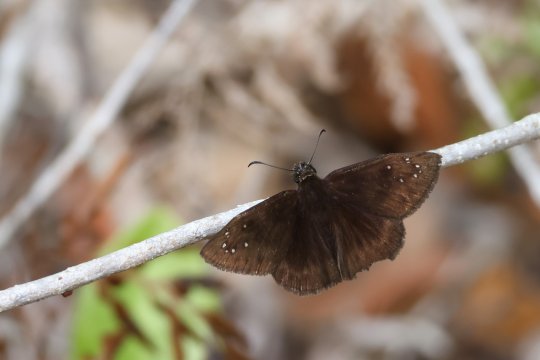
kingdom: Animalia
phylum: Arthropoda
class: Insecta
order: Lepidoptera
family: Hesperiidae
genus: Ephyriades
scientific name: Ephyriades brunnea
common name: Florida Duskywing
